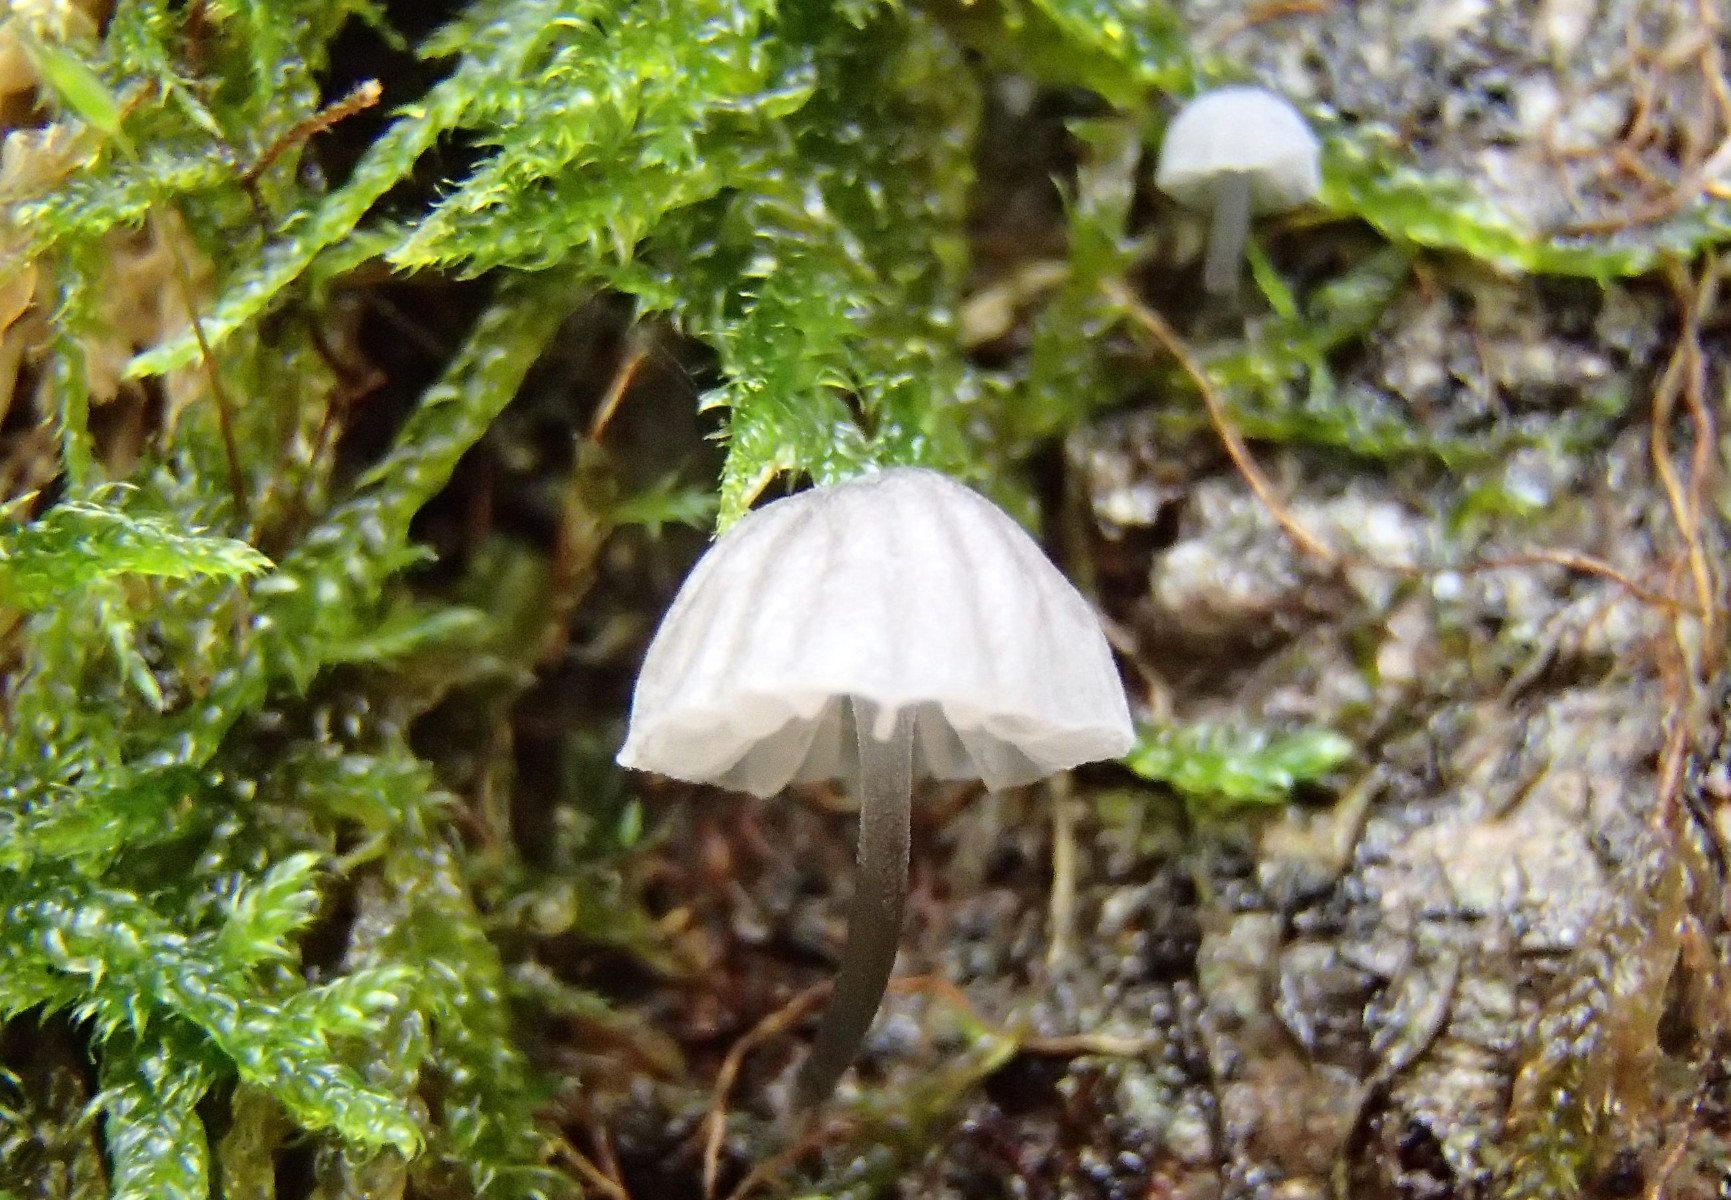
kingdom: Fungi
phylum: Basidiomycota
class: Agaricomycetes
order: Agaricales
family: Mycenaceae
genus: Mycena
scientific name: Mycena pseudocorticola
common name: gråblå bark-huesvamp
